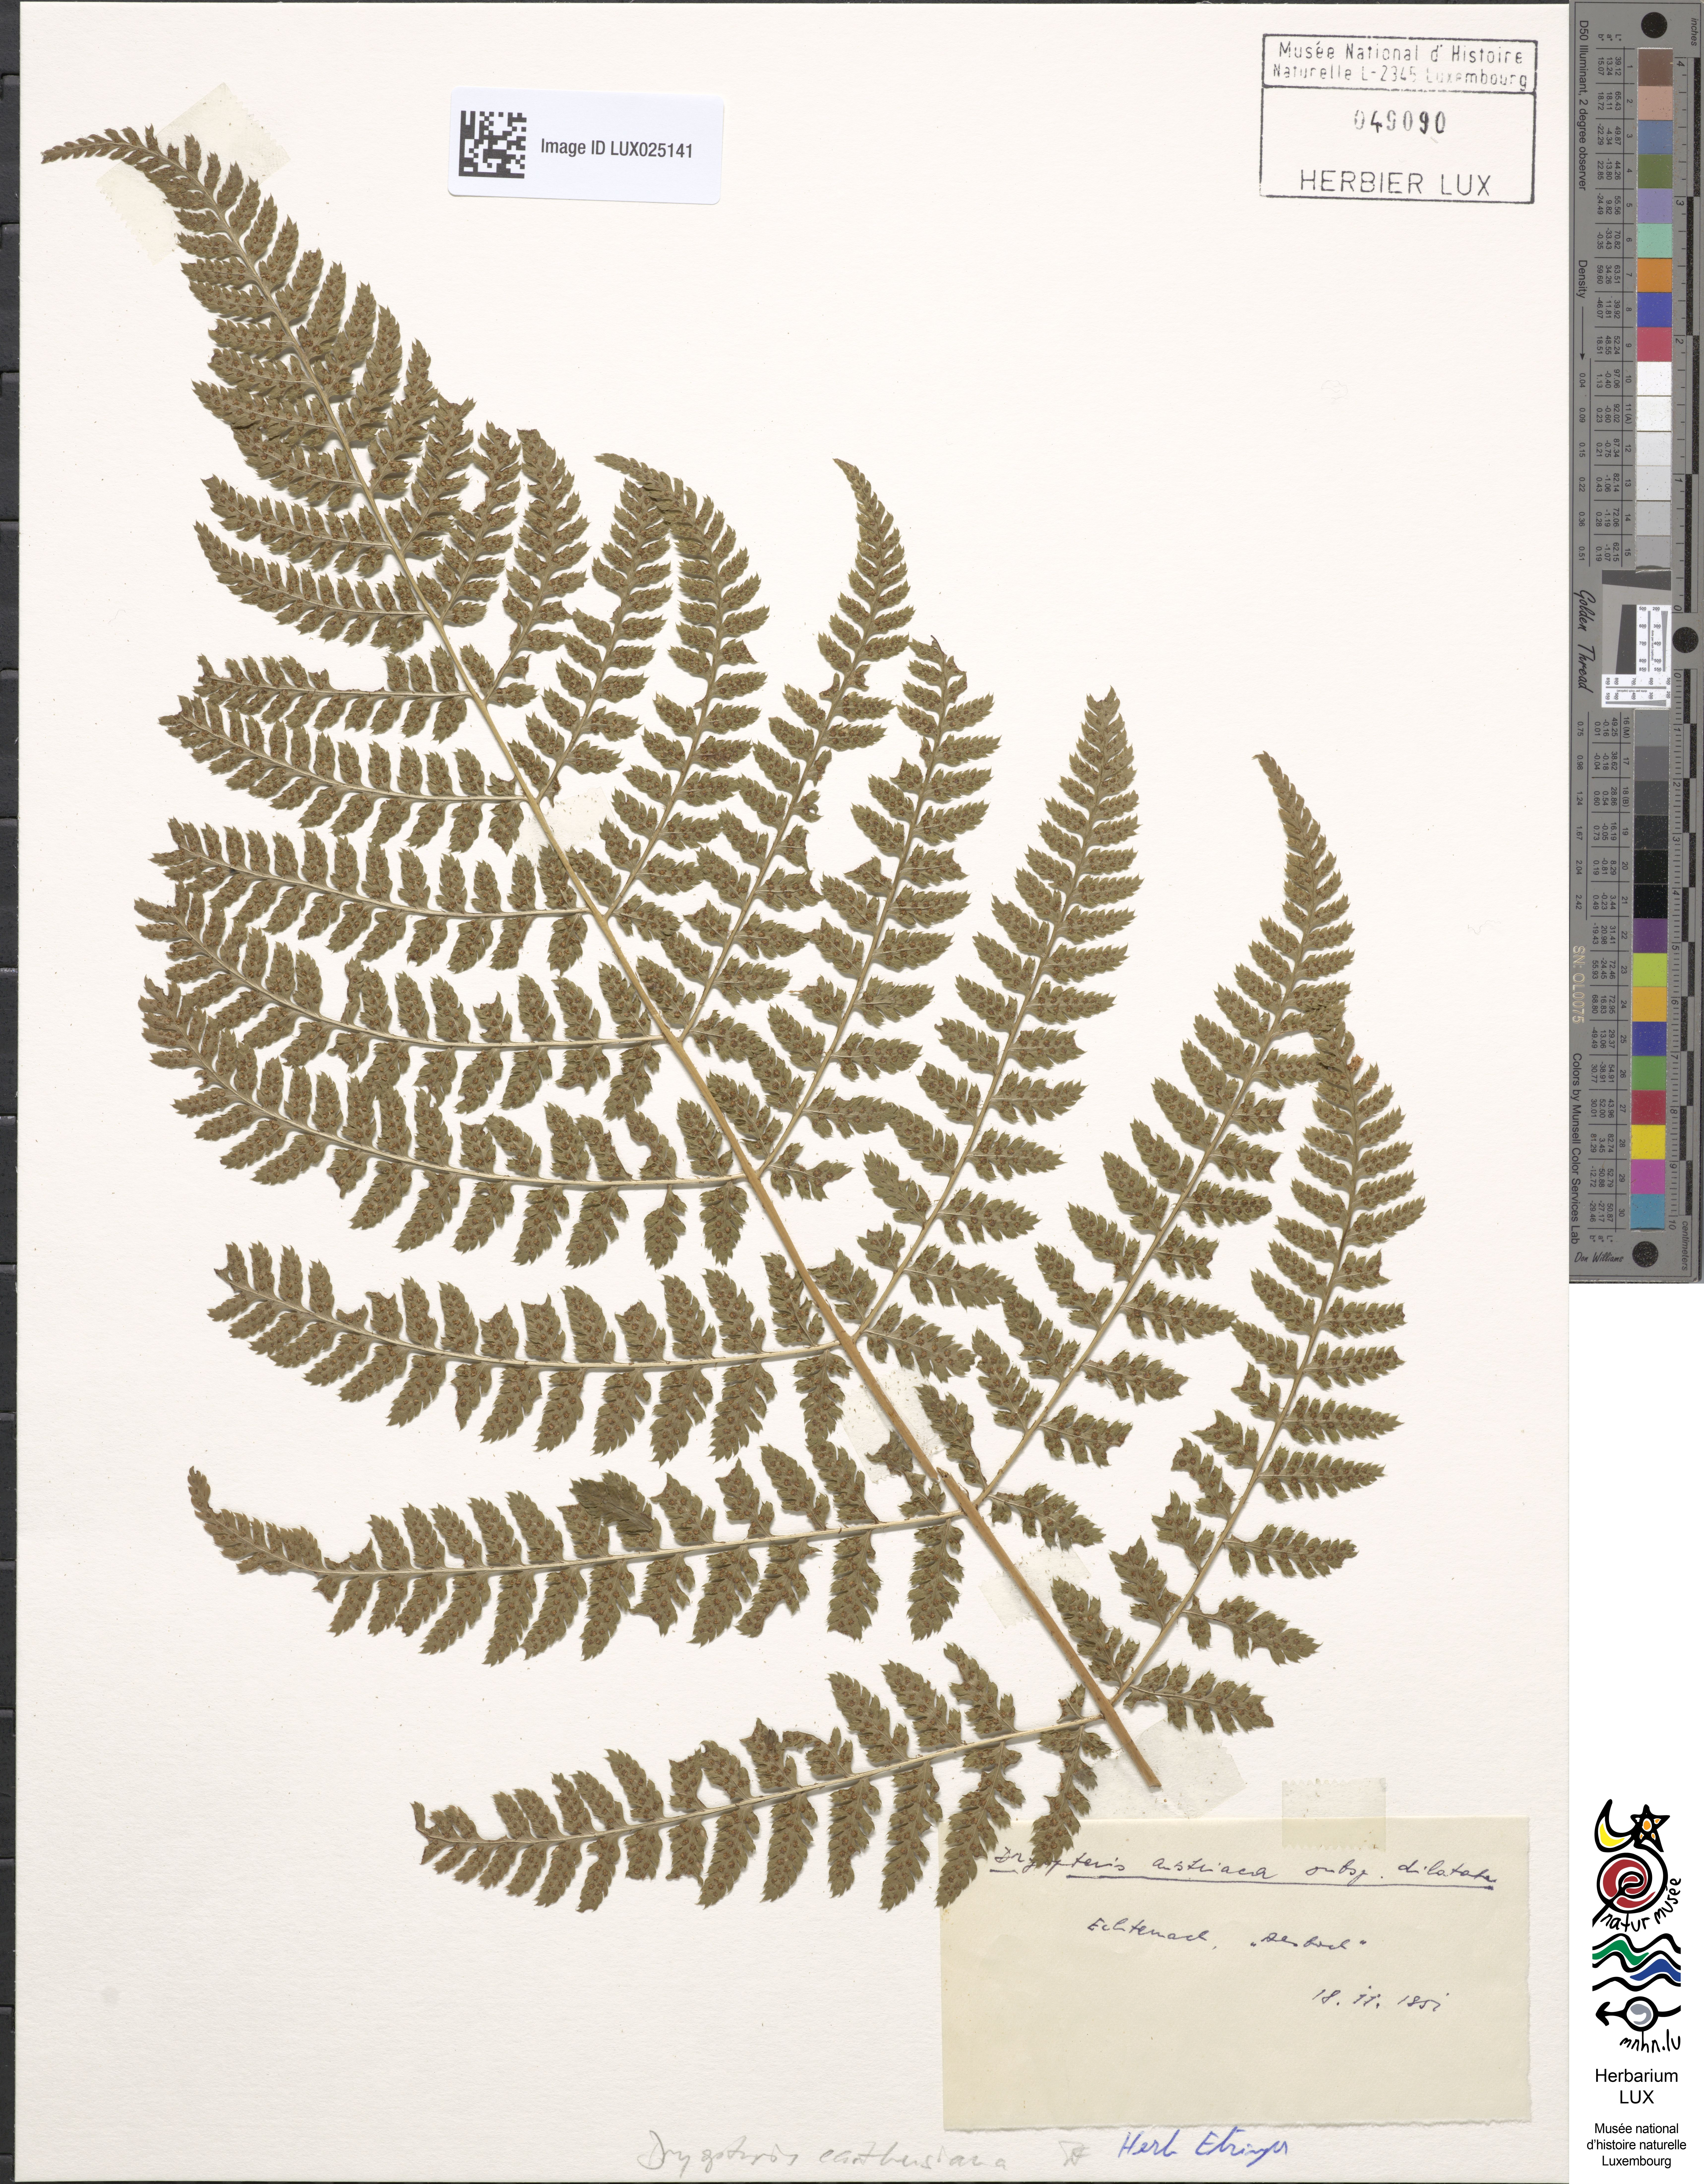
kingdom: Plantae
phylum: Tracheophyta
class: Polypodiopsida
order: Polypodiales
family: Dryopteridaceae
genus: Dryopteris
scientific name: Dryopteris carthusiana
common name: Narrow buckler-fern
